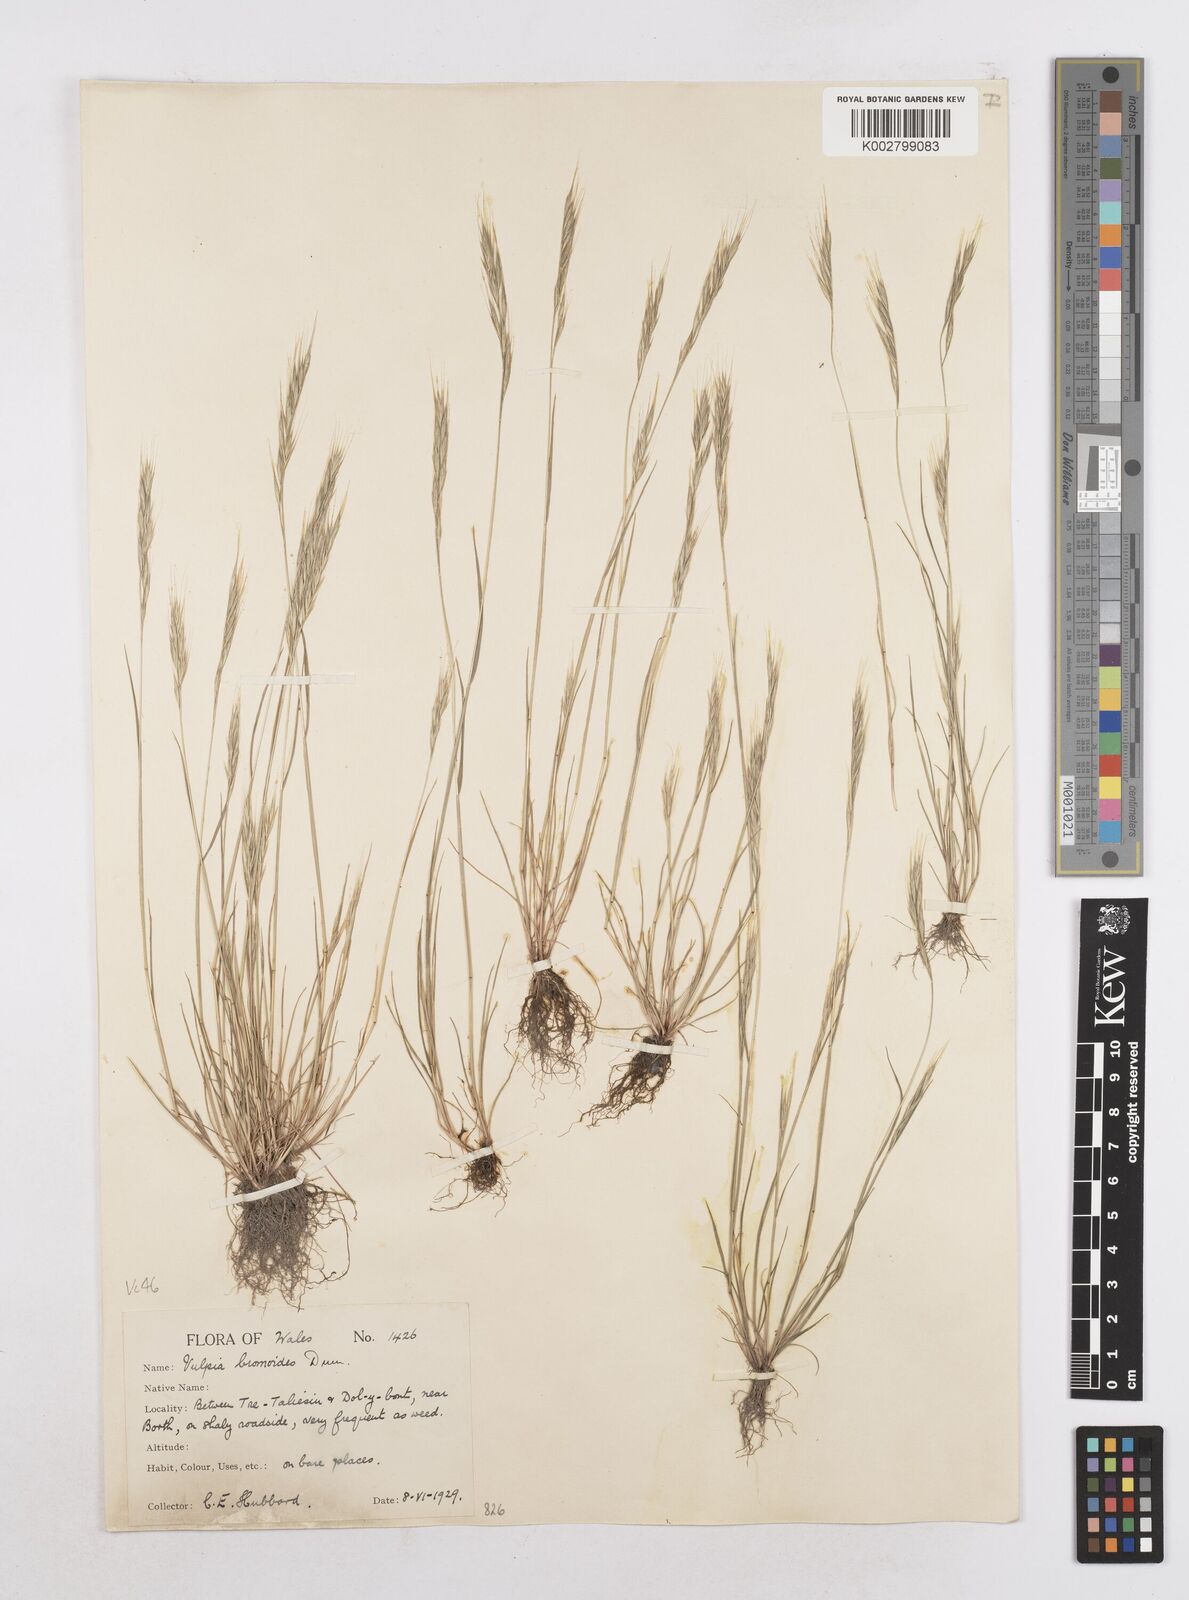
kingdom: Plantae
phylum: Tracheophyta
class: Liliopsida
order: Poales
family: Poaceae
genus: Festuca
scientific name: Festuca bromoides
